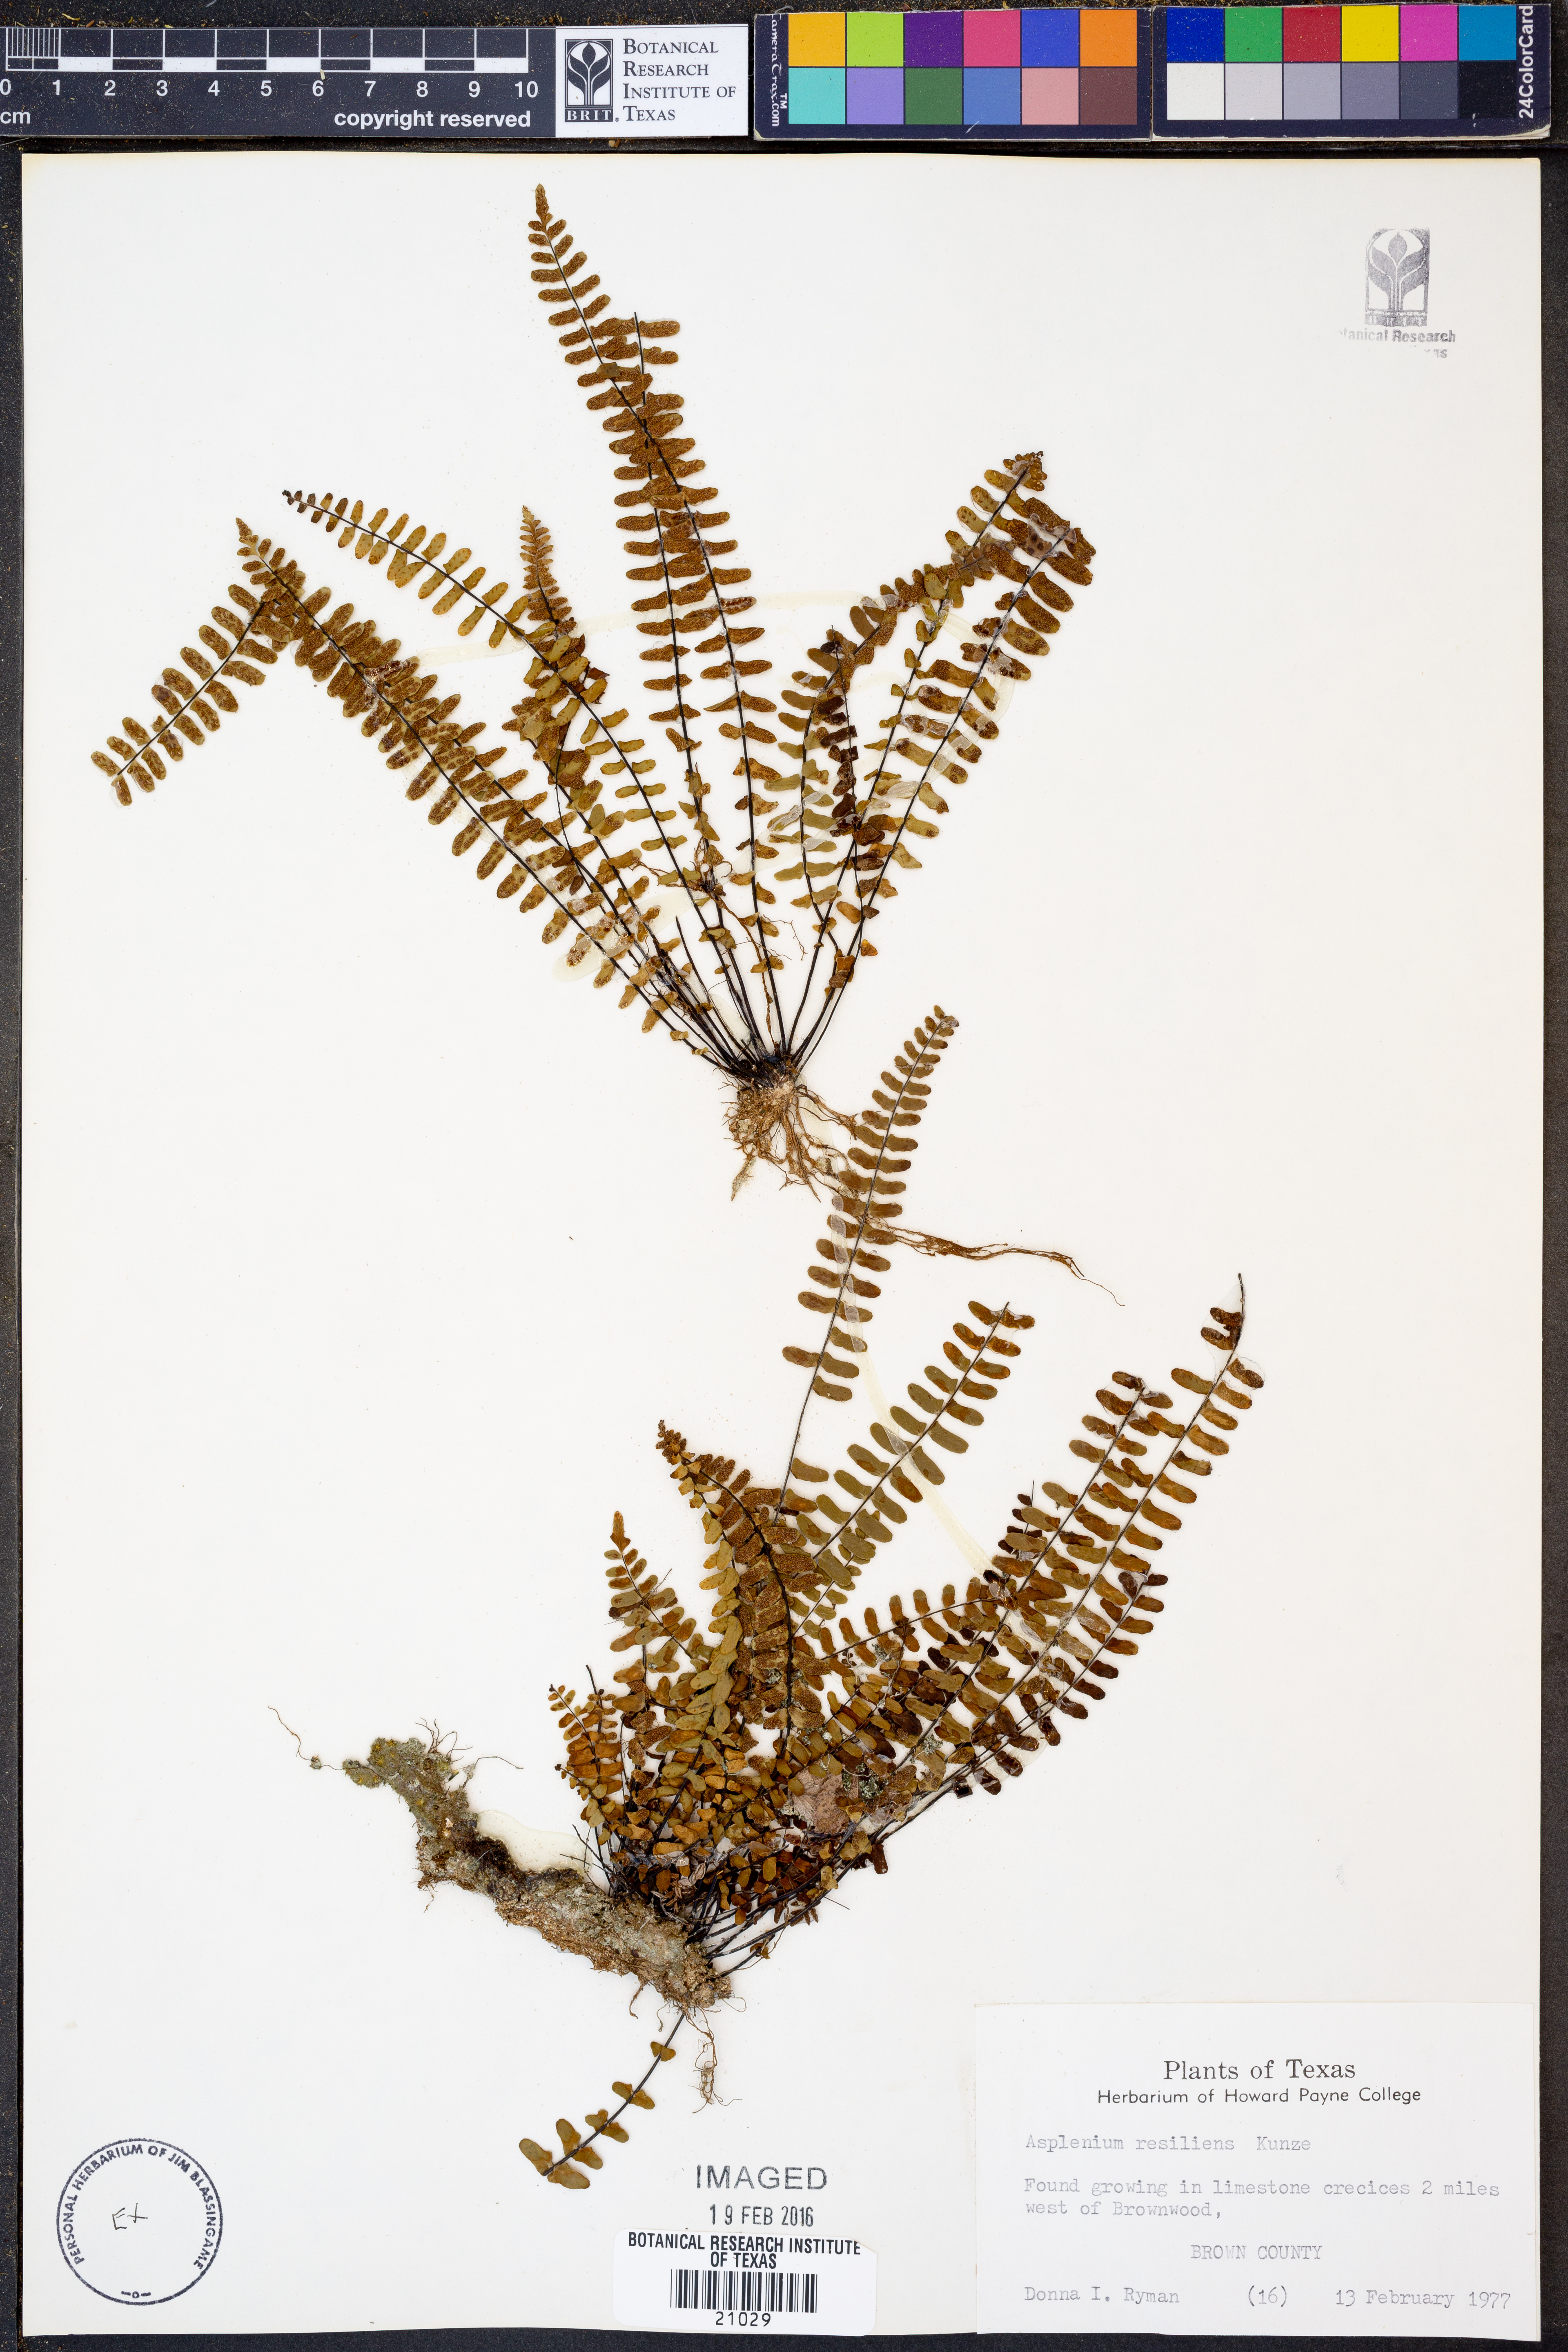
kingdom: Plantae
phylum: Tracheophyta
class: Polypodiopsida
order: Polypodiales
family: Aspleniaceae
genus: Asplenium
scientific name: Asplenium resiliens
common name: Blackstem spleenwort
